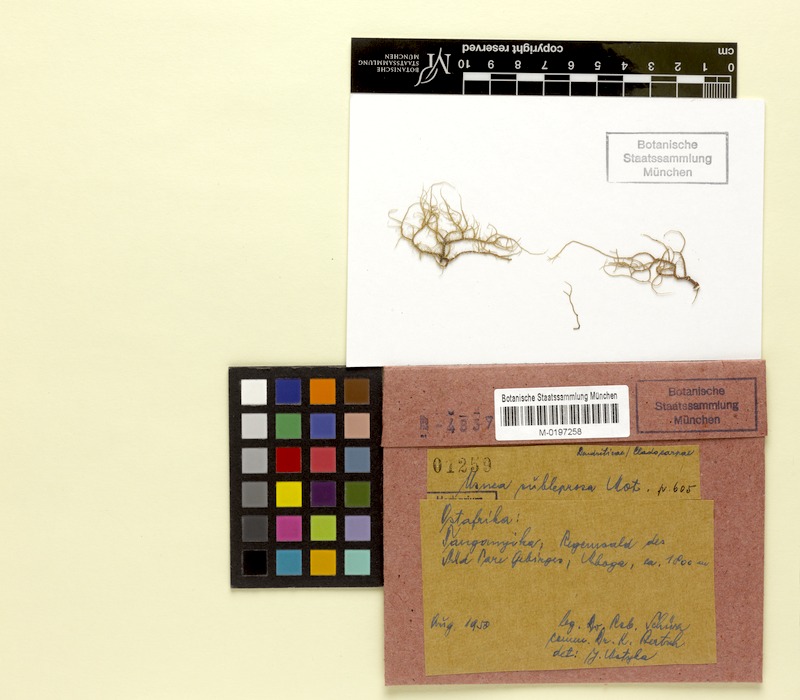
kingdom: Fungi
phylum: Ascomycota
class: Lecanoromycetes
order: Lecanorales
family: Parmeliaceae
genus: Usnea
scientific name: Usnea subleprosa
